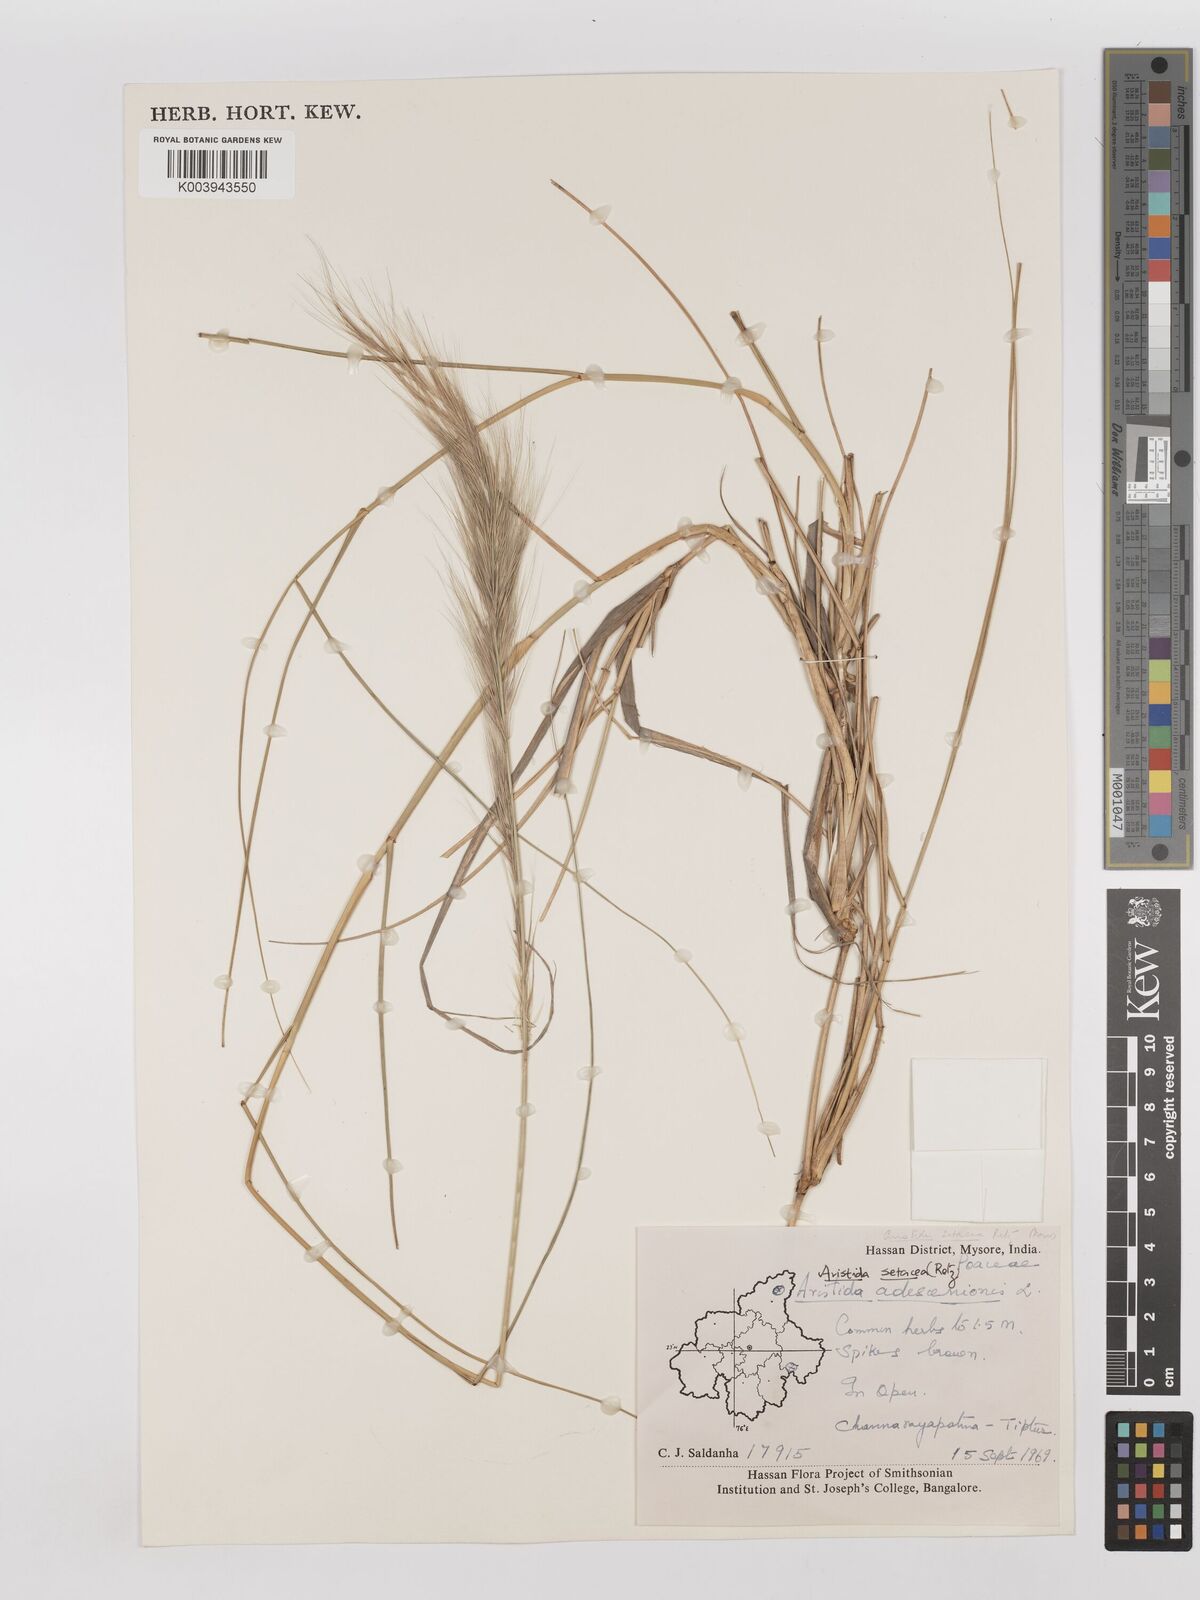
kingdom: Plantae
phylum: Tracheophyta
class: Liliopsida
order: Poales
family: Poaceae
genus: Aristida
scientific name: Aristida setacea
